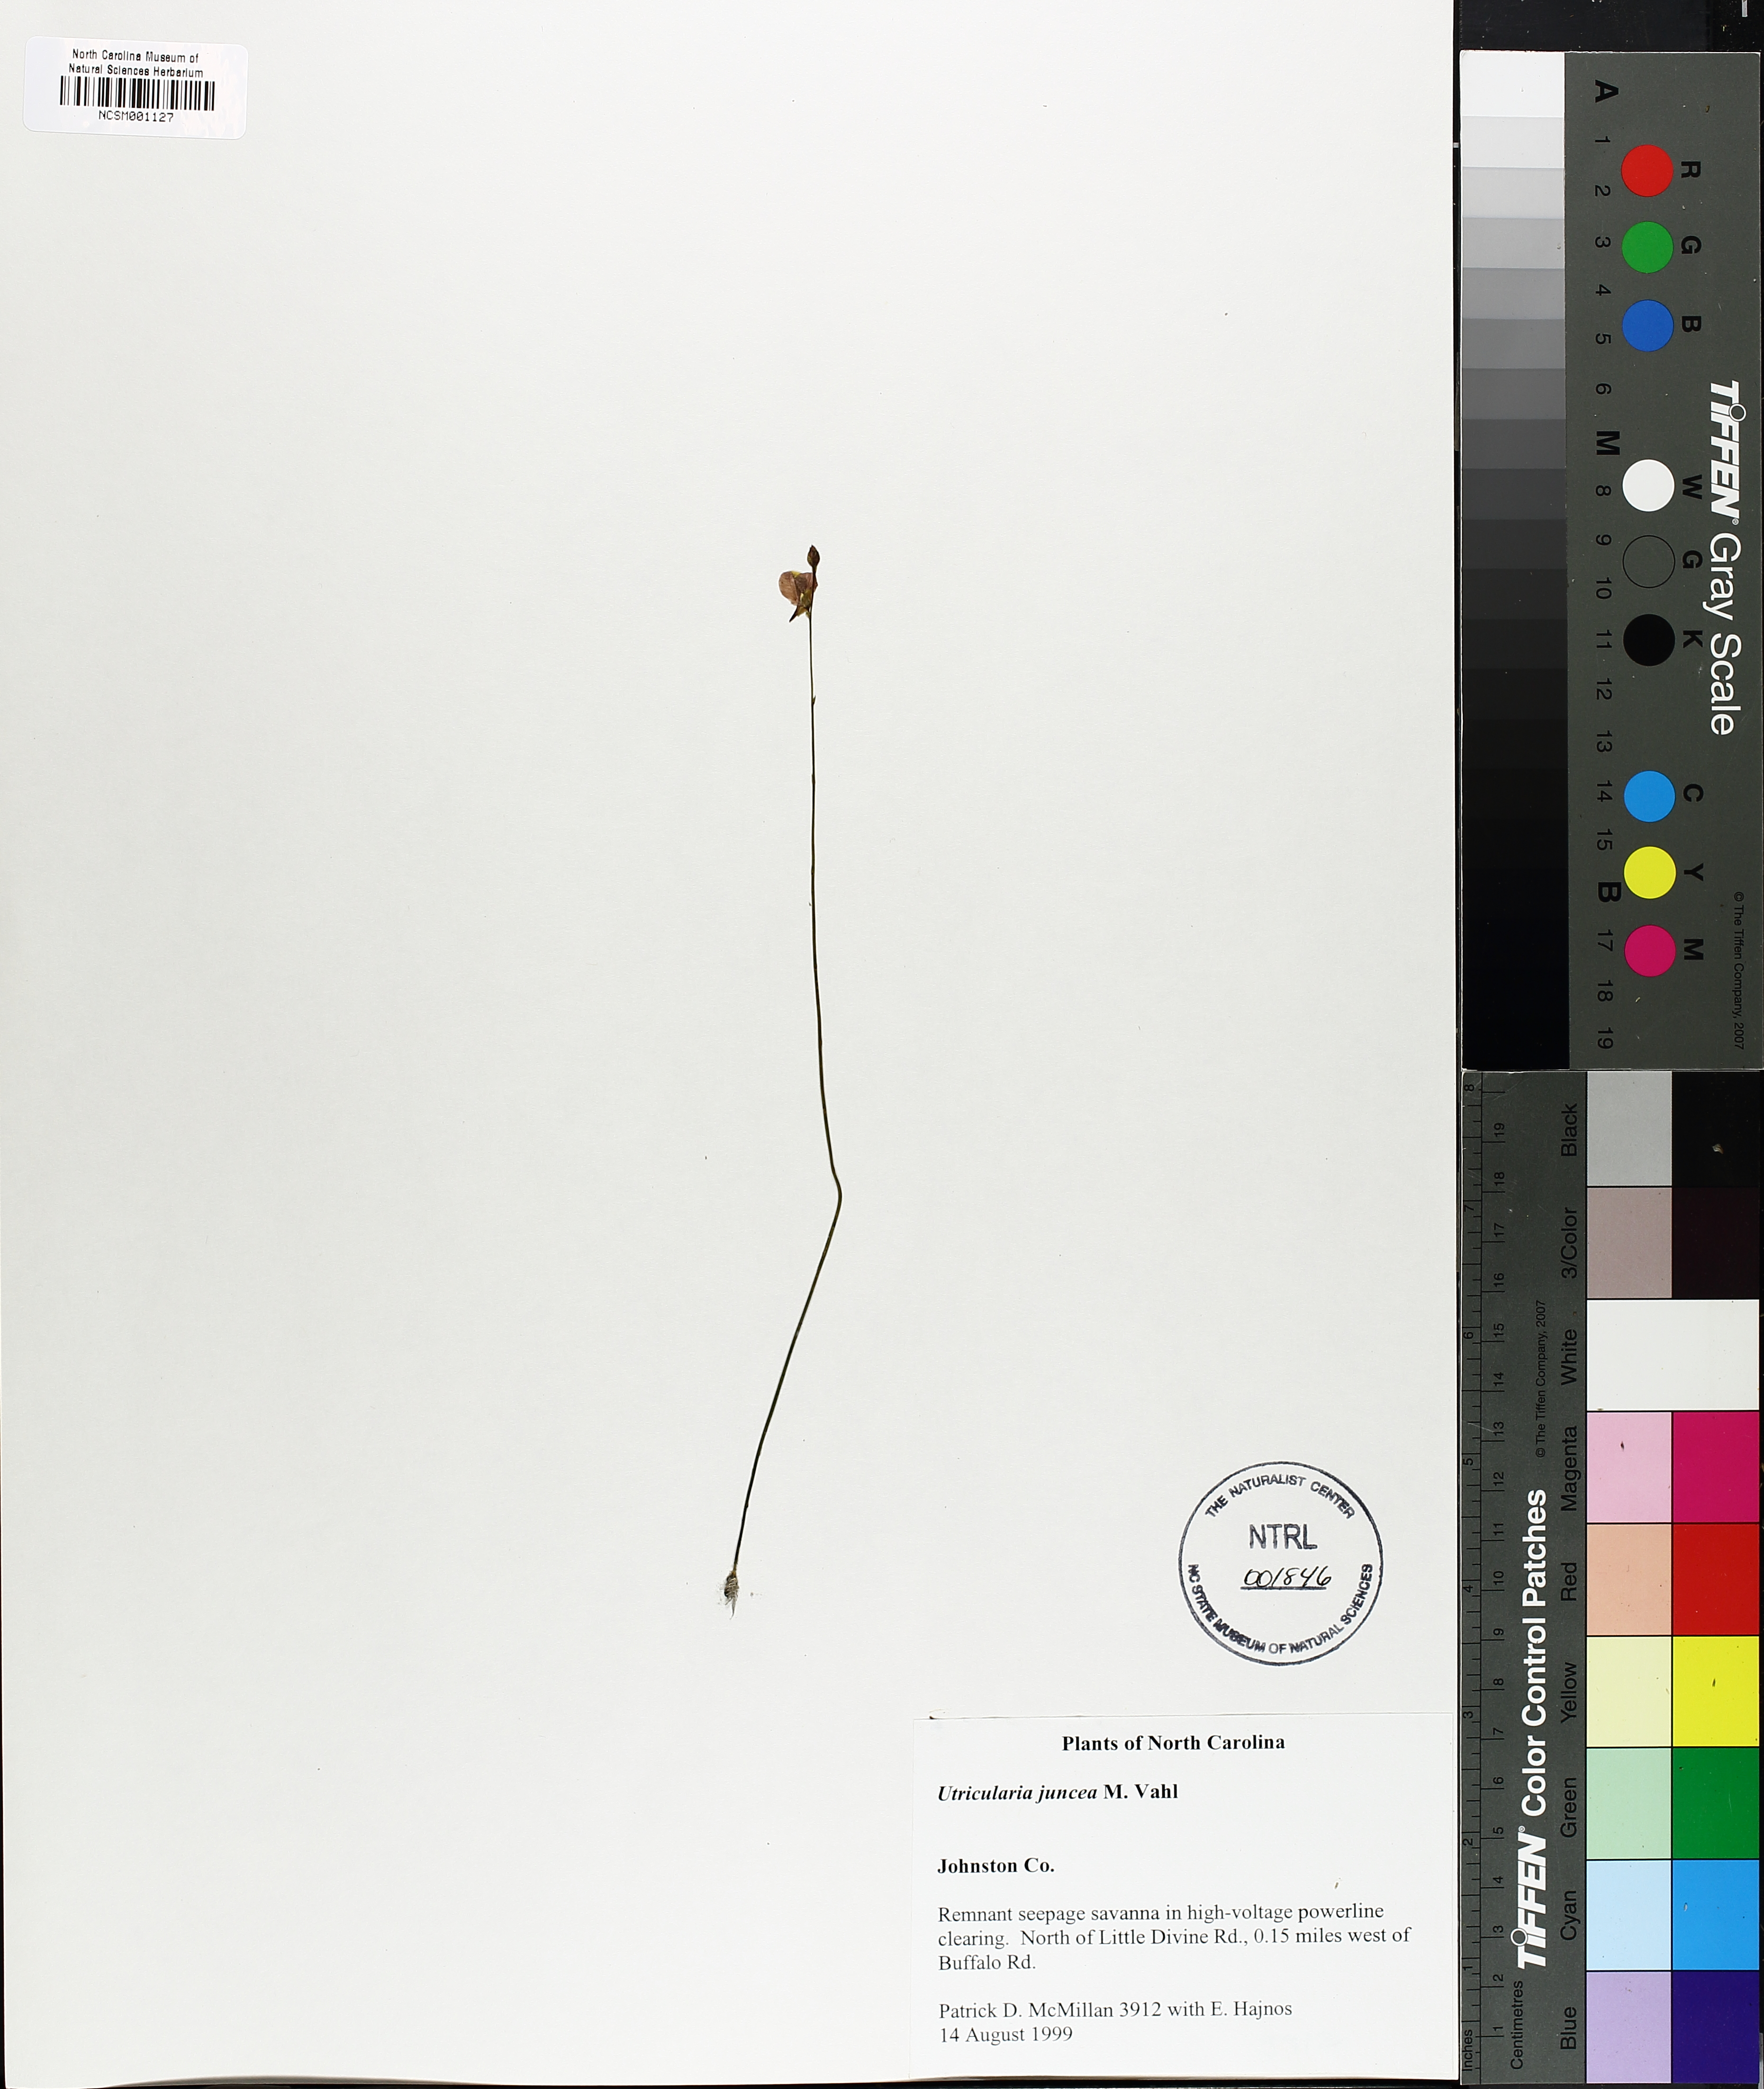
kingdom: Plantae
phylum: Tracheophyta
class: Magnoliopsida
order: Lamiales
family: Lentibulariaceae
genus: Utricularia
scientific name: Utricularia juncea
